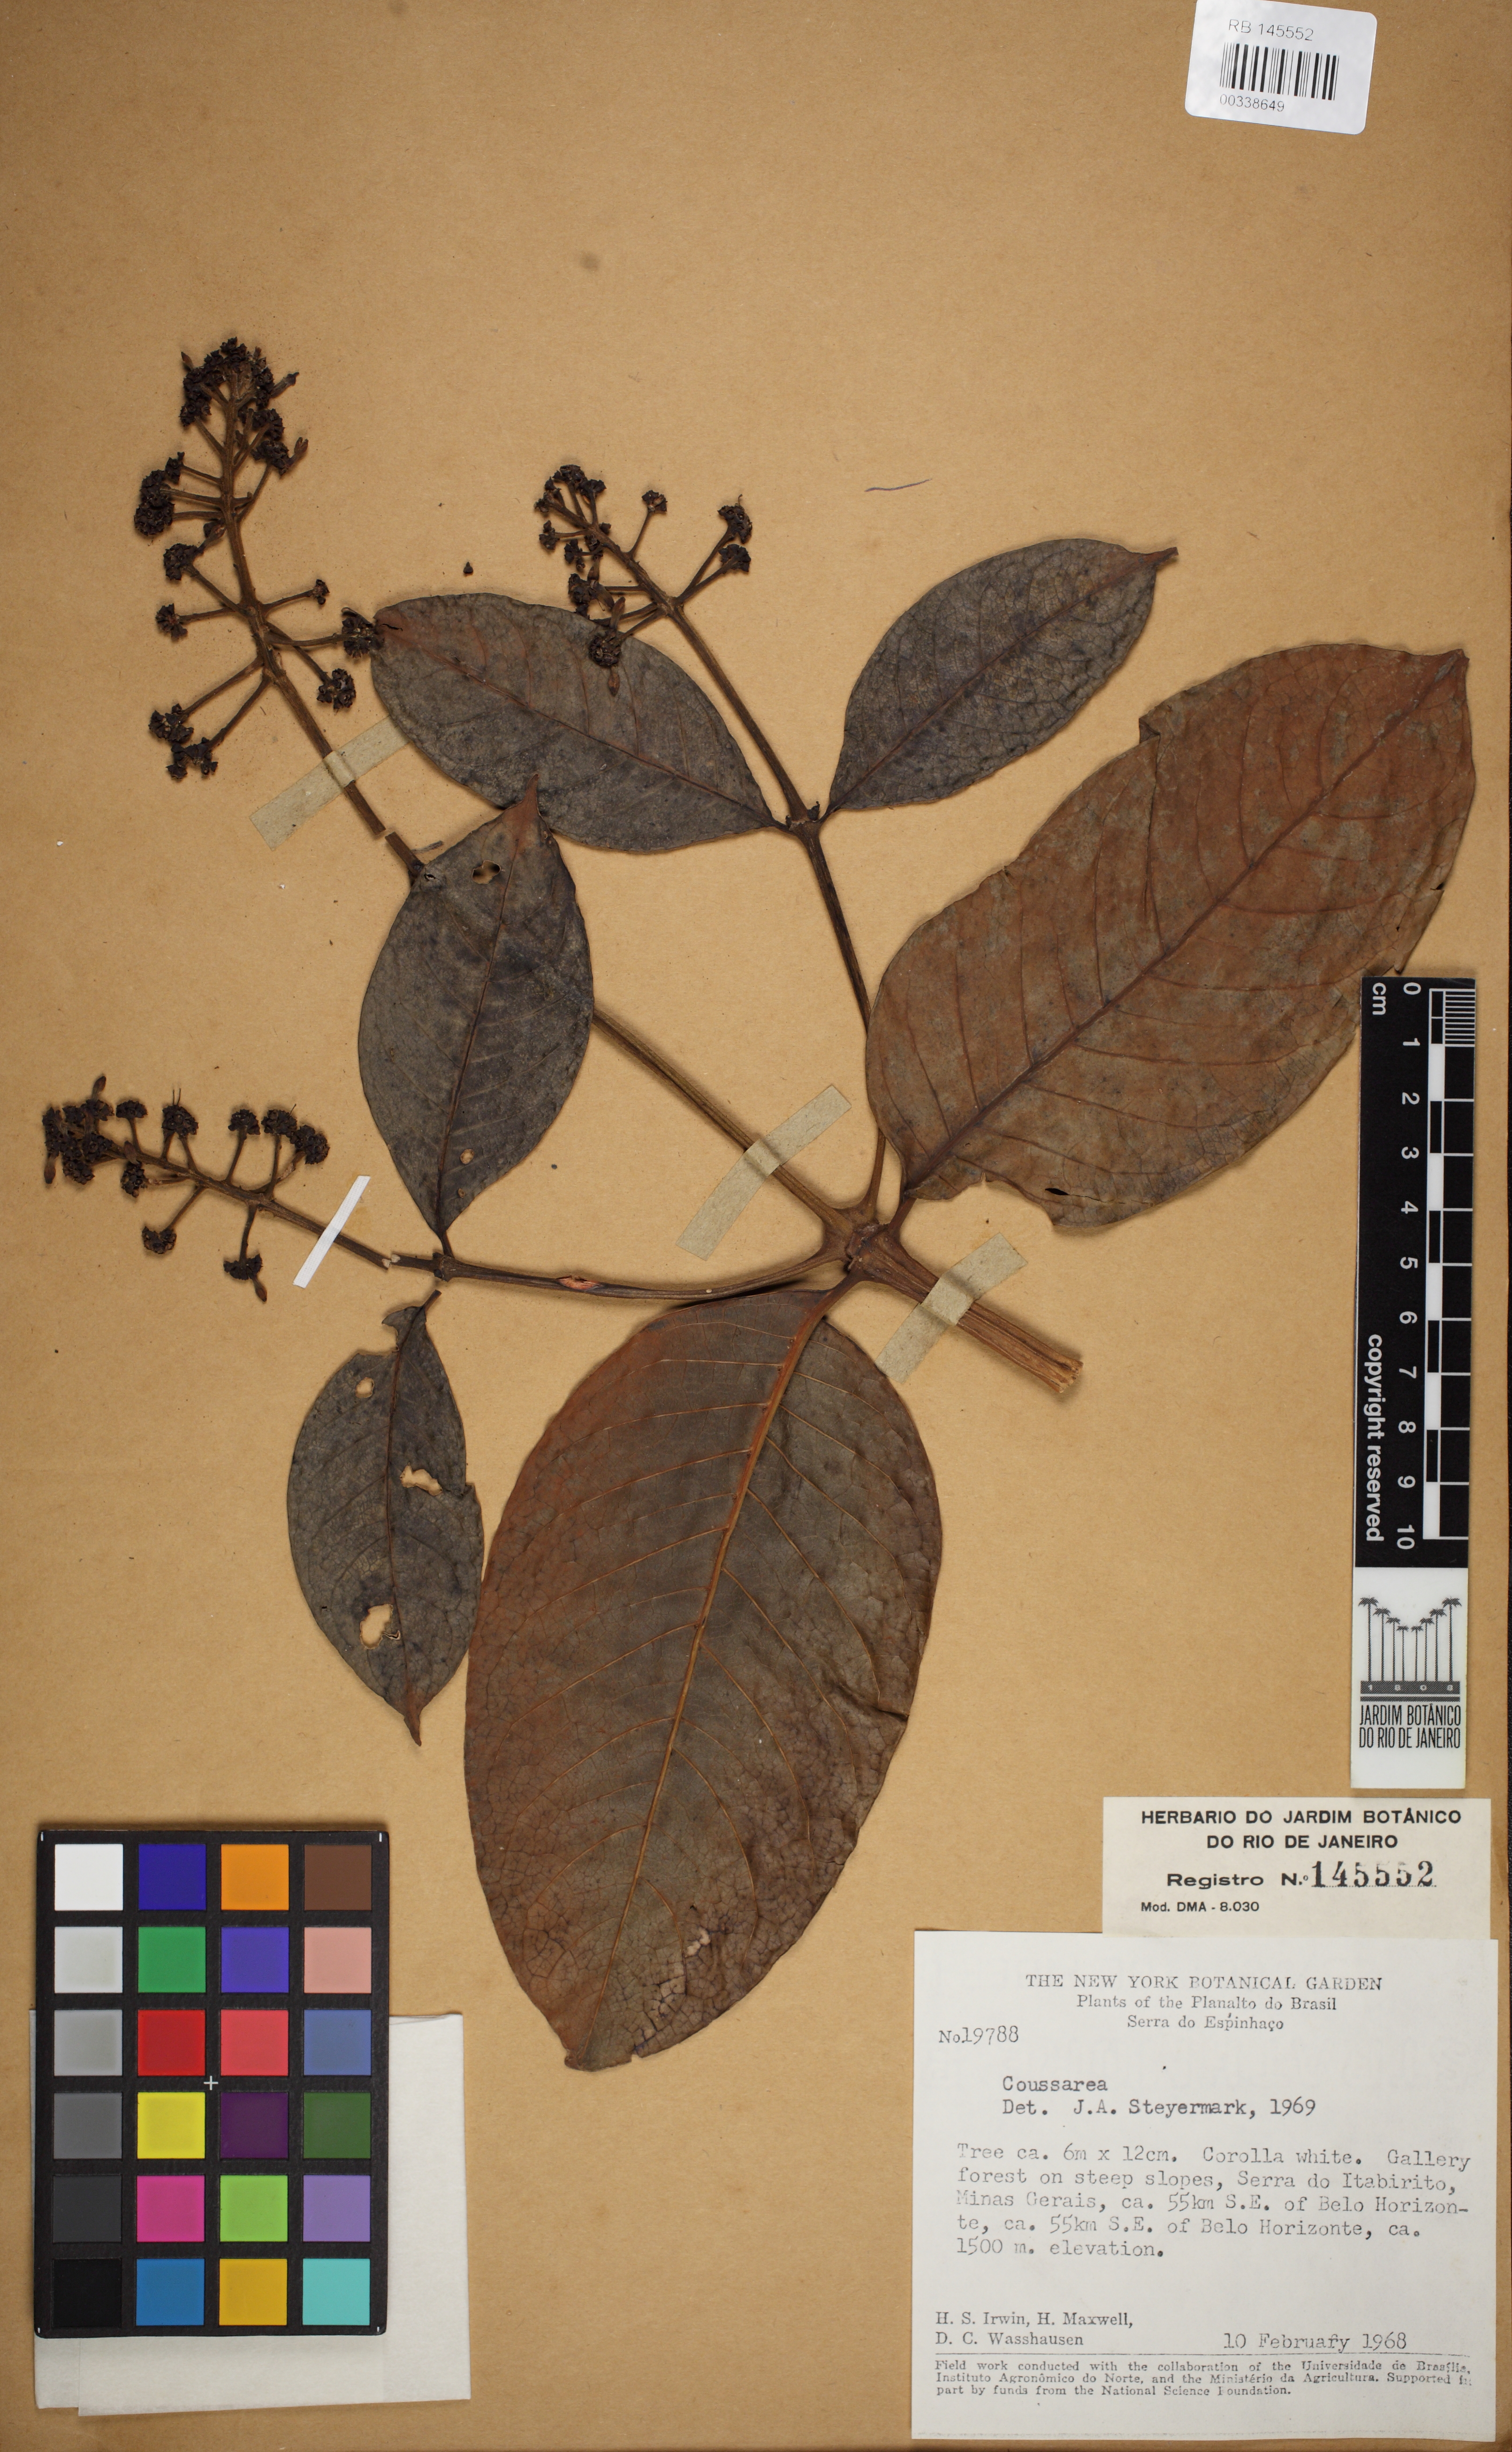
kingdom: Plantae
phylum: Tracheophyta
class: Magnoliopsida
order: Gentianales
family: Rubiaceae
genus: Coussarea
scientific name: Coussarea congestiflora
